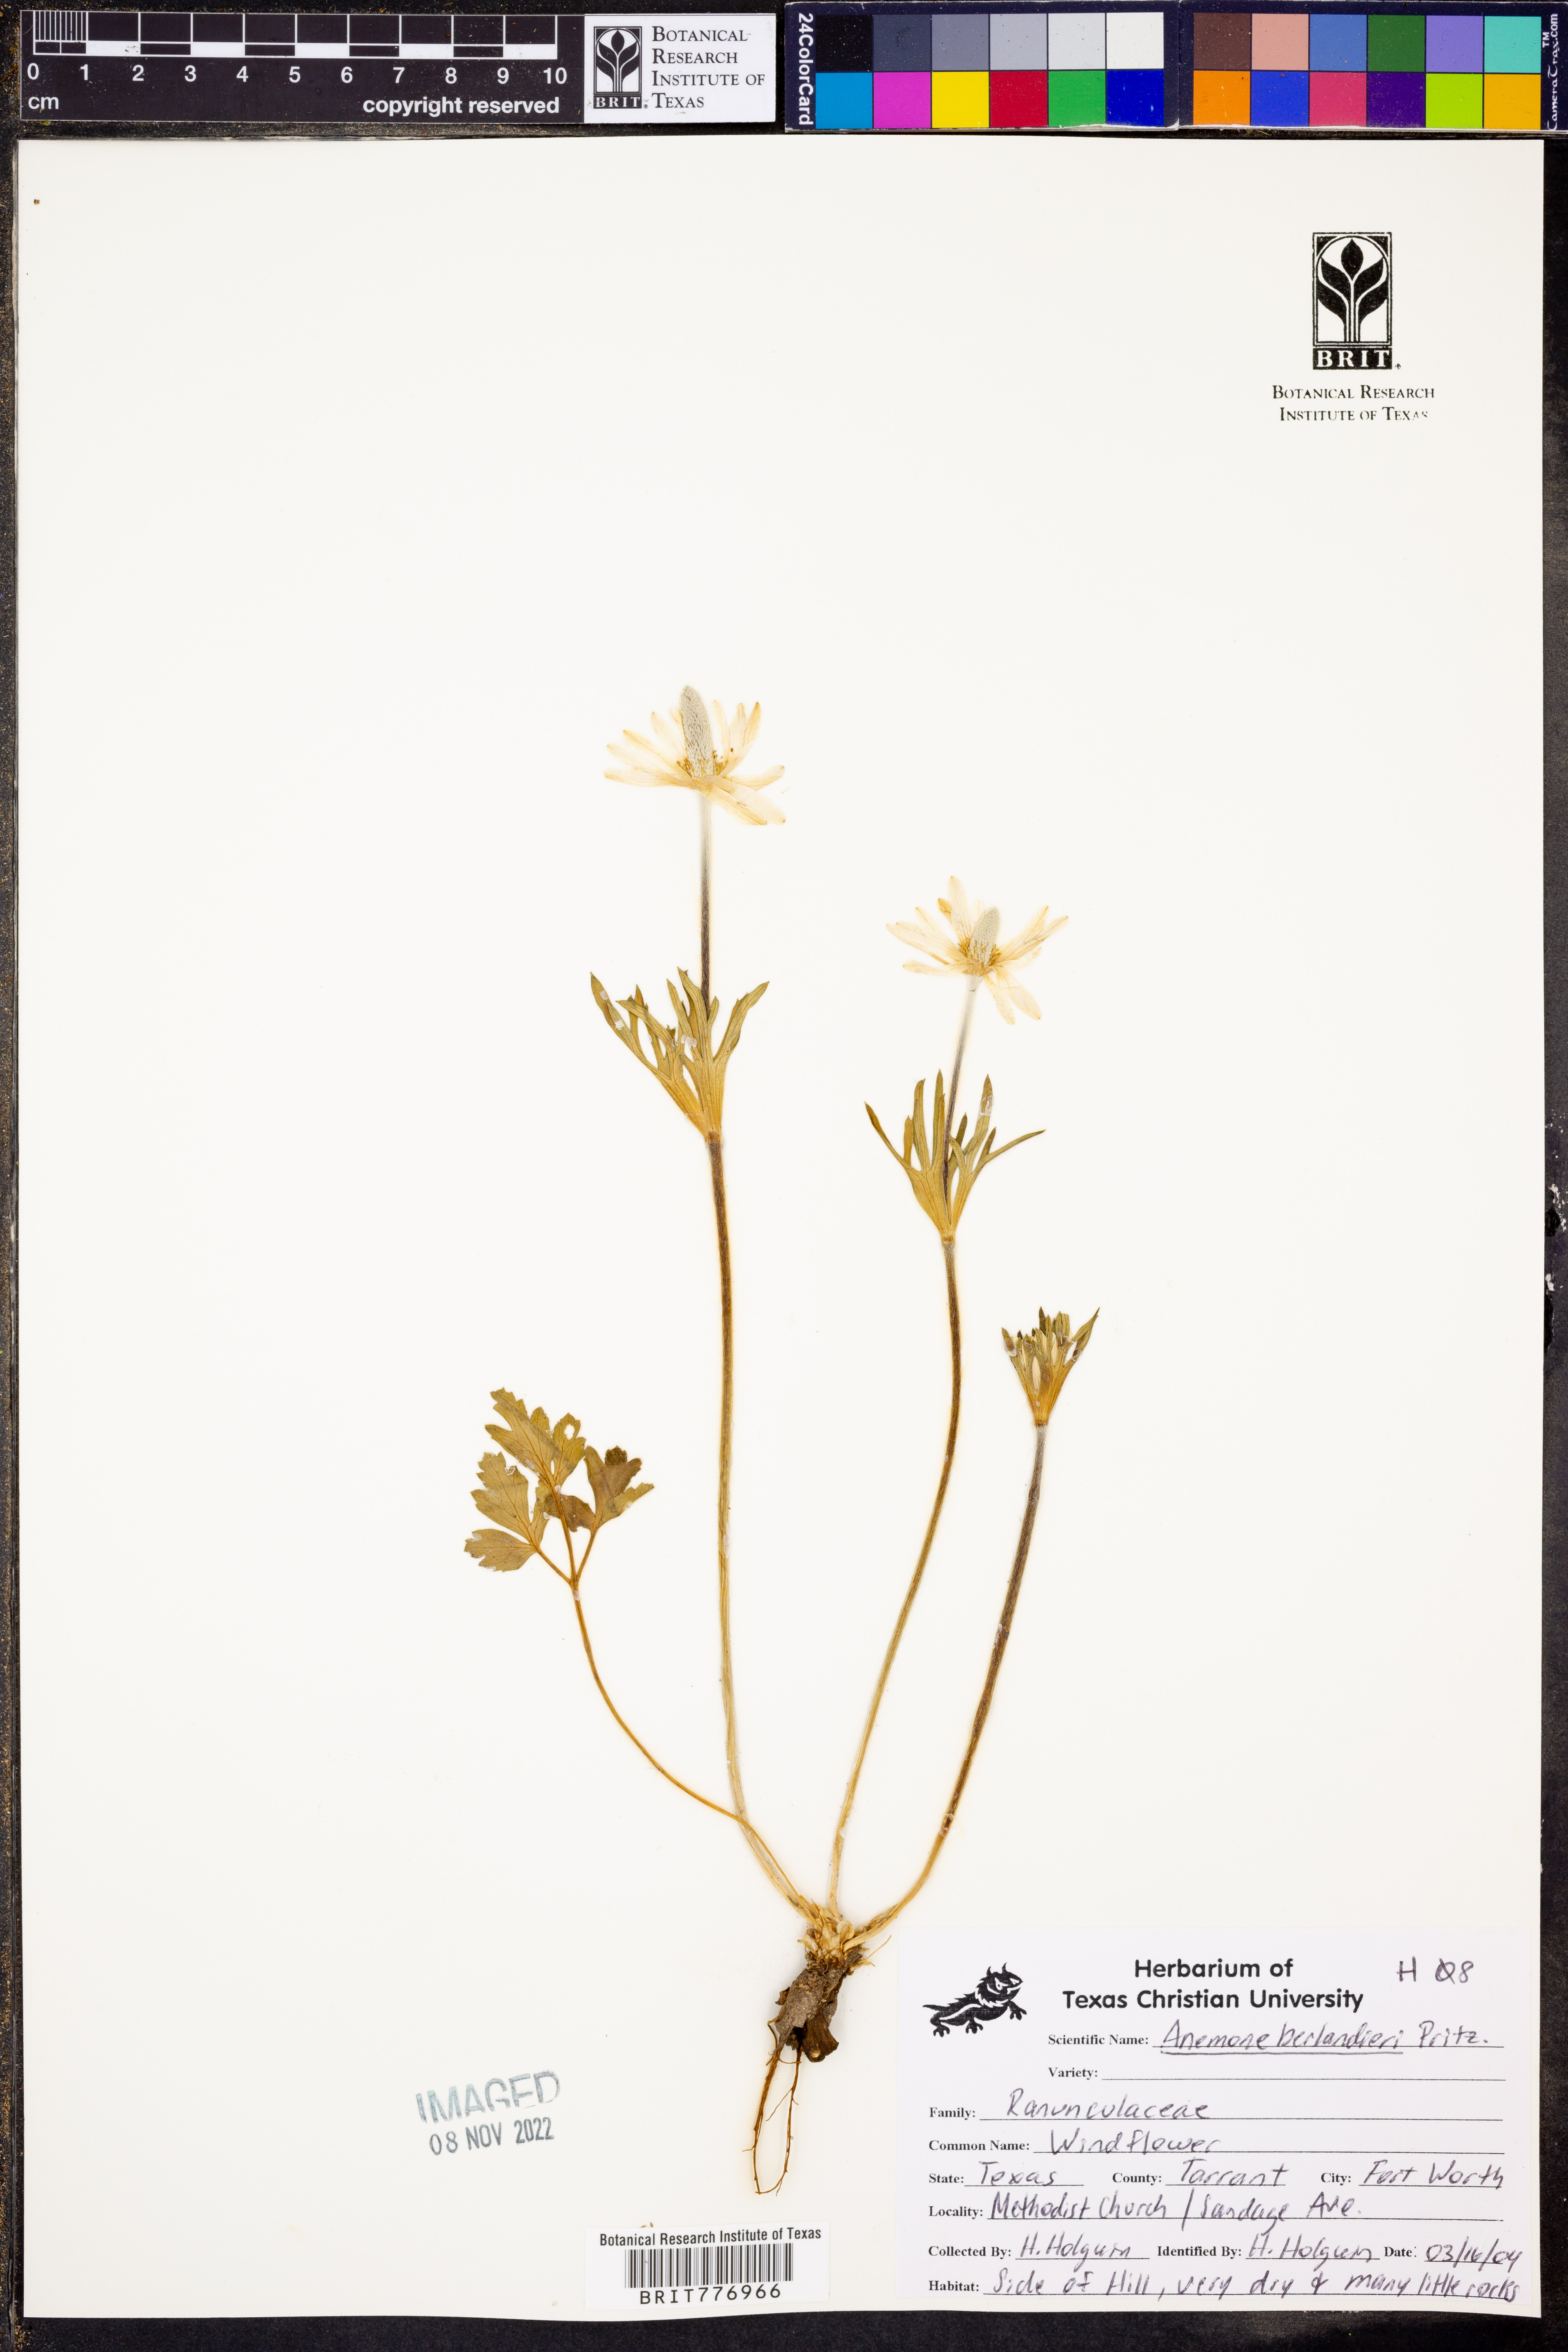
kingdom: Plantae
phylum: Tracheophyta
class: Magnoliopsida
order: Ranunculales
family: Ranunculaceae
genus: Anemone
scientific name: Anemone berlandieri
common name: Ten-petal anemone
